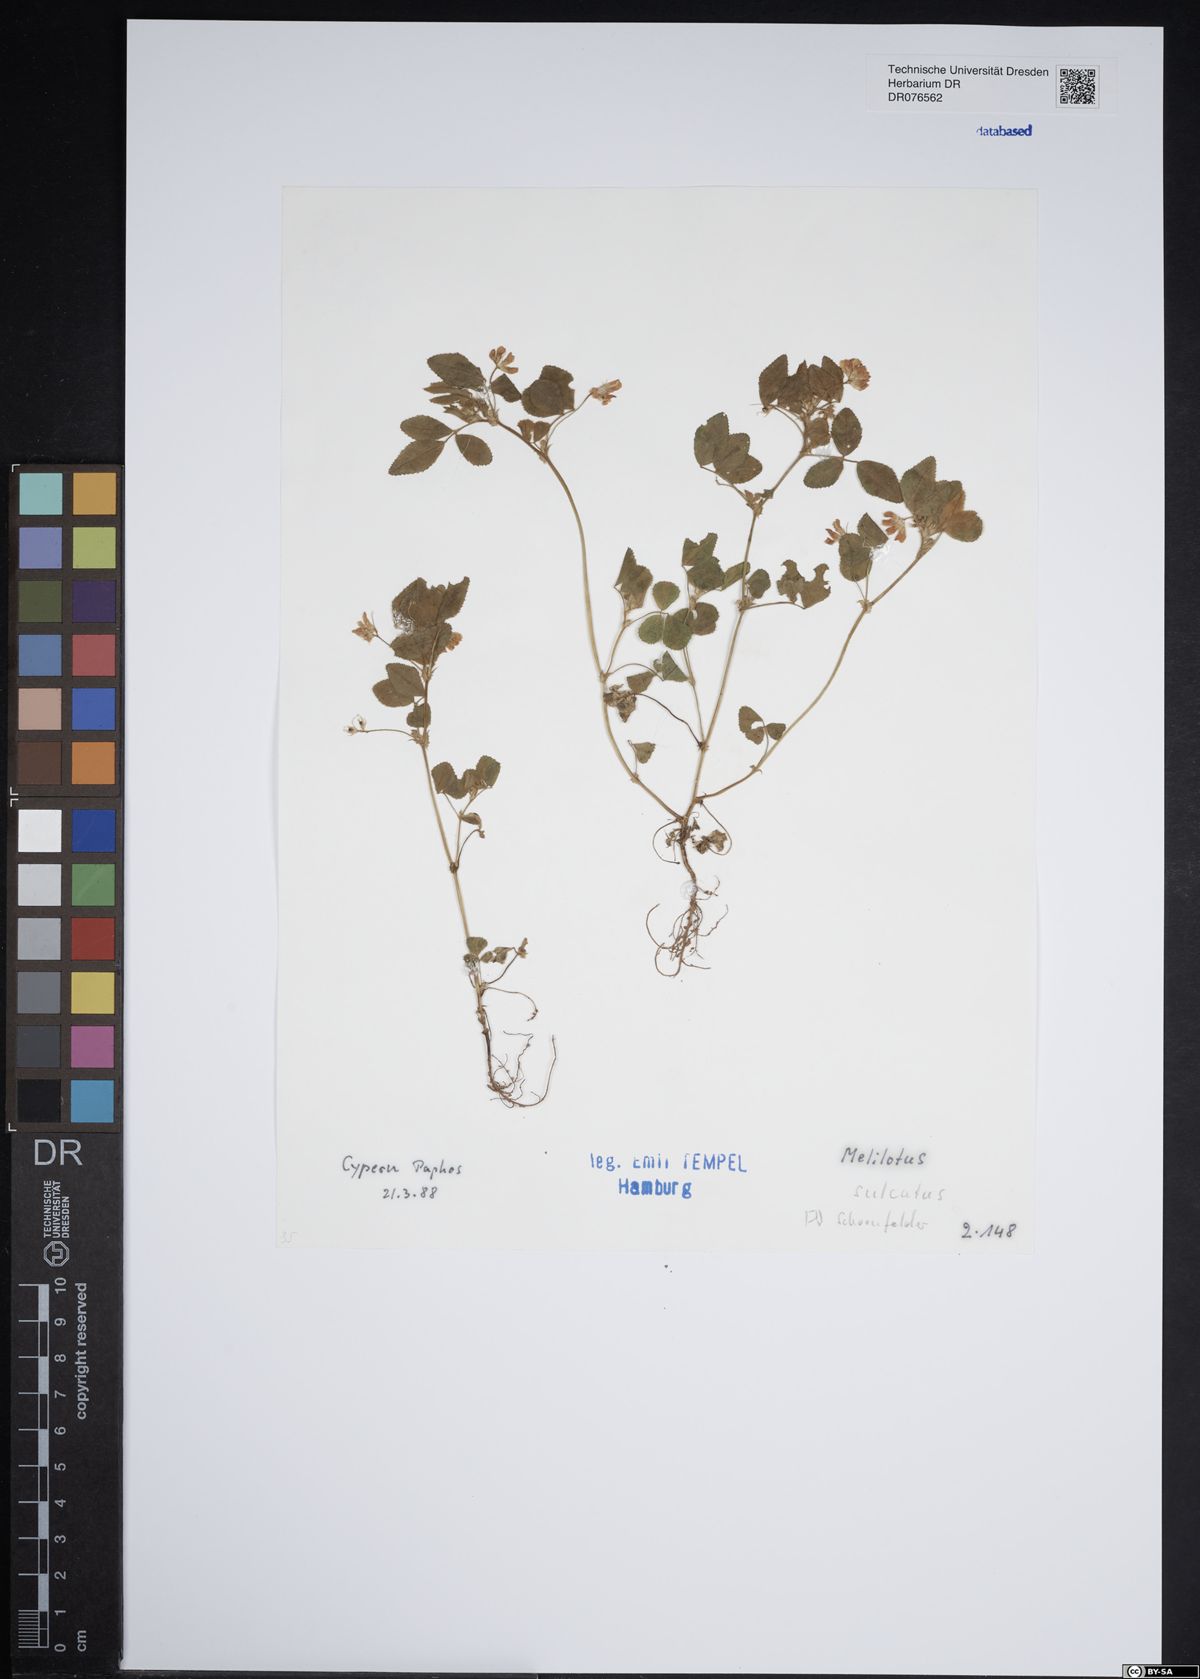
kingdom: Plantae
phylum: Tracheophyta
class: Magnoliopsida
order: Fabales
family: Fabaceae
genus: Melilotus
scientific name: Melilotus sulcatus
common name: Furrowed melilot
